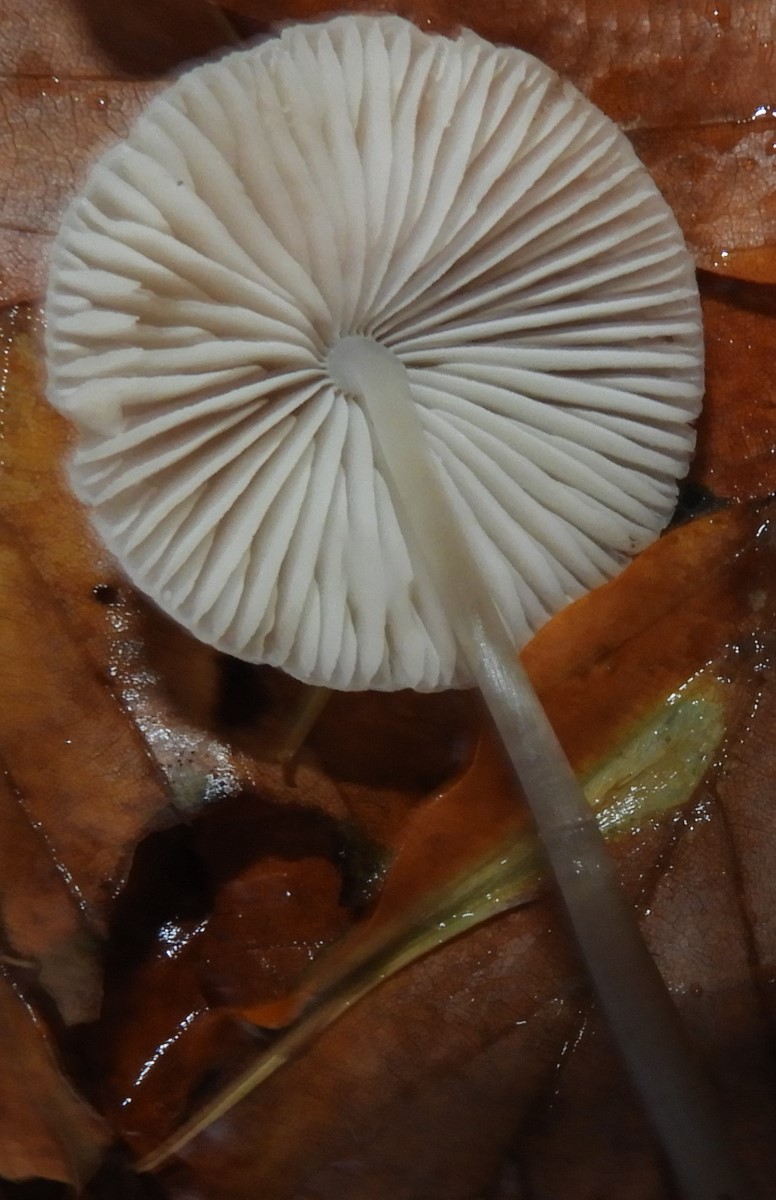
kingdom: Fungi
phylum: Basidiomycota
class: Agaricomycetes
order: Agaricales
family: Mycenaceae
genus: Mycena
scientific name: Mycena
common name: huesvamp
